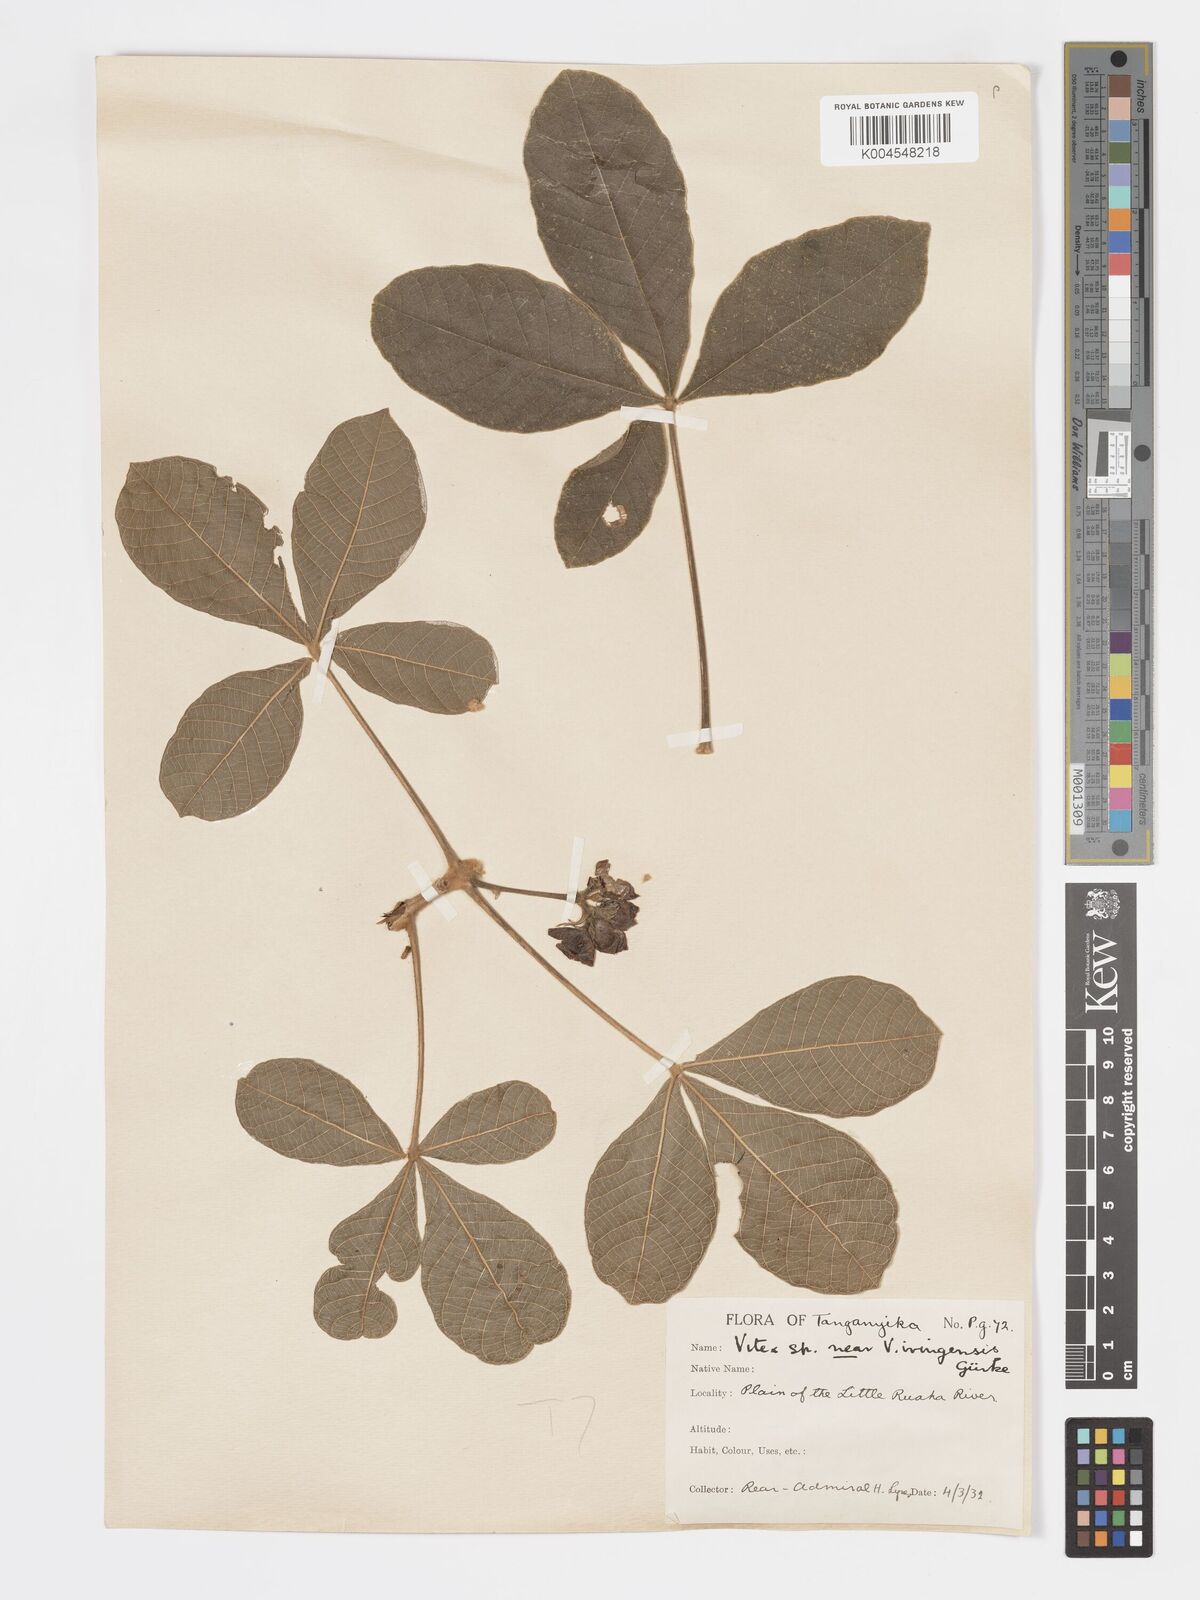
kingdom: Plantae
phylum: Tracheophyta
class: Magnoliopsida
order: Lamiales
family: Lamiaceae
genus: Vitex
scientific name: Vitex payos
